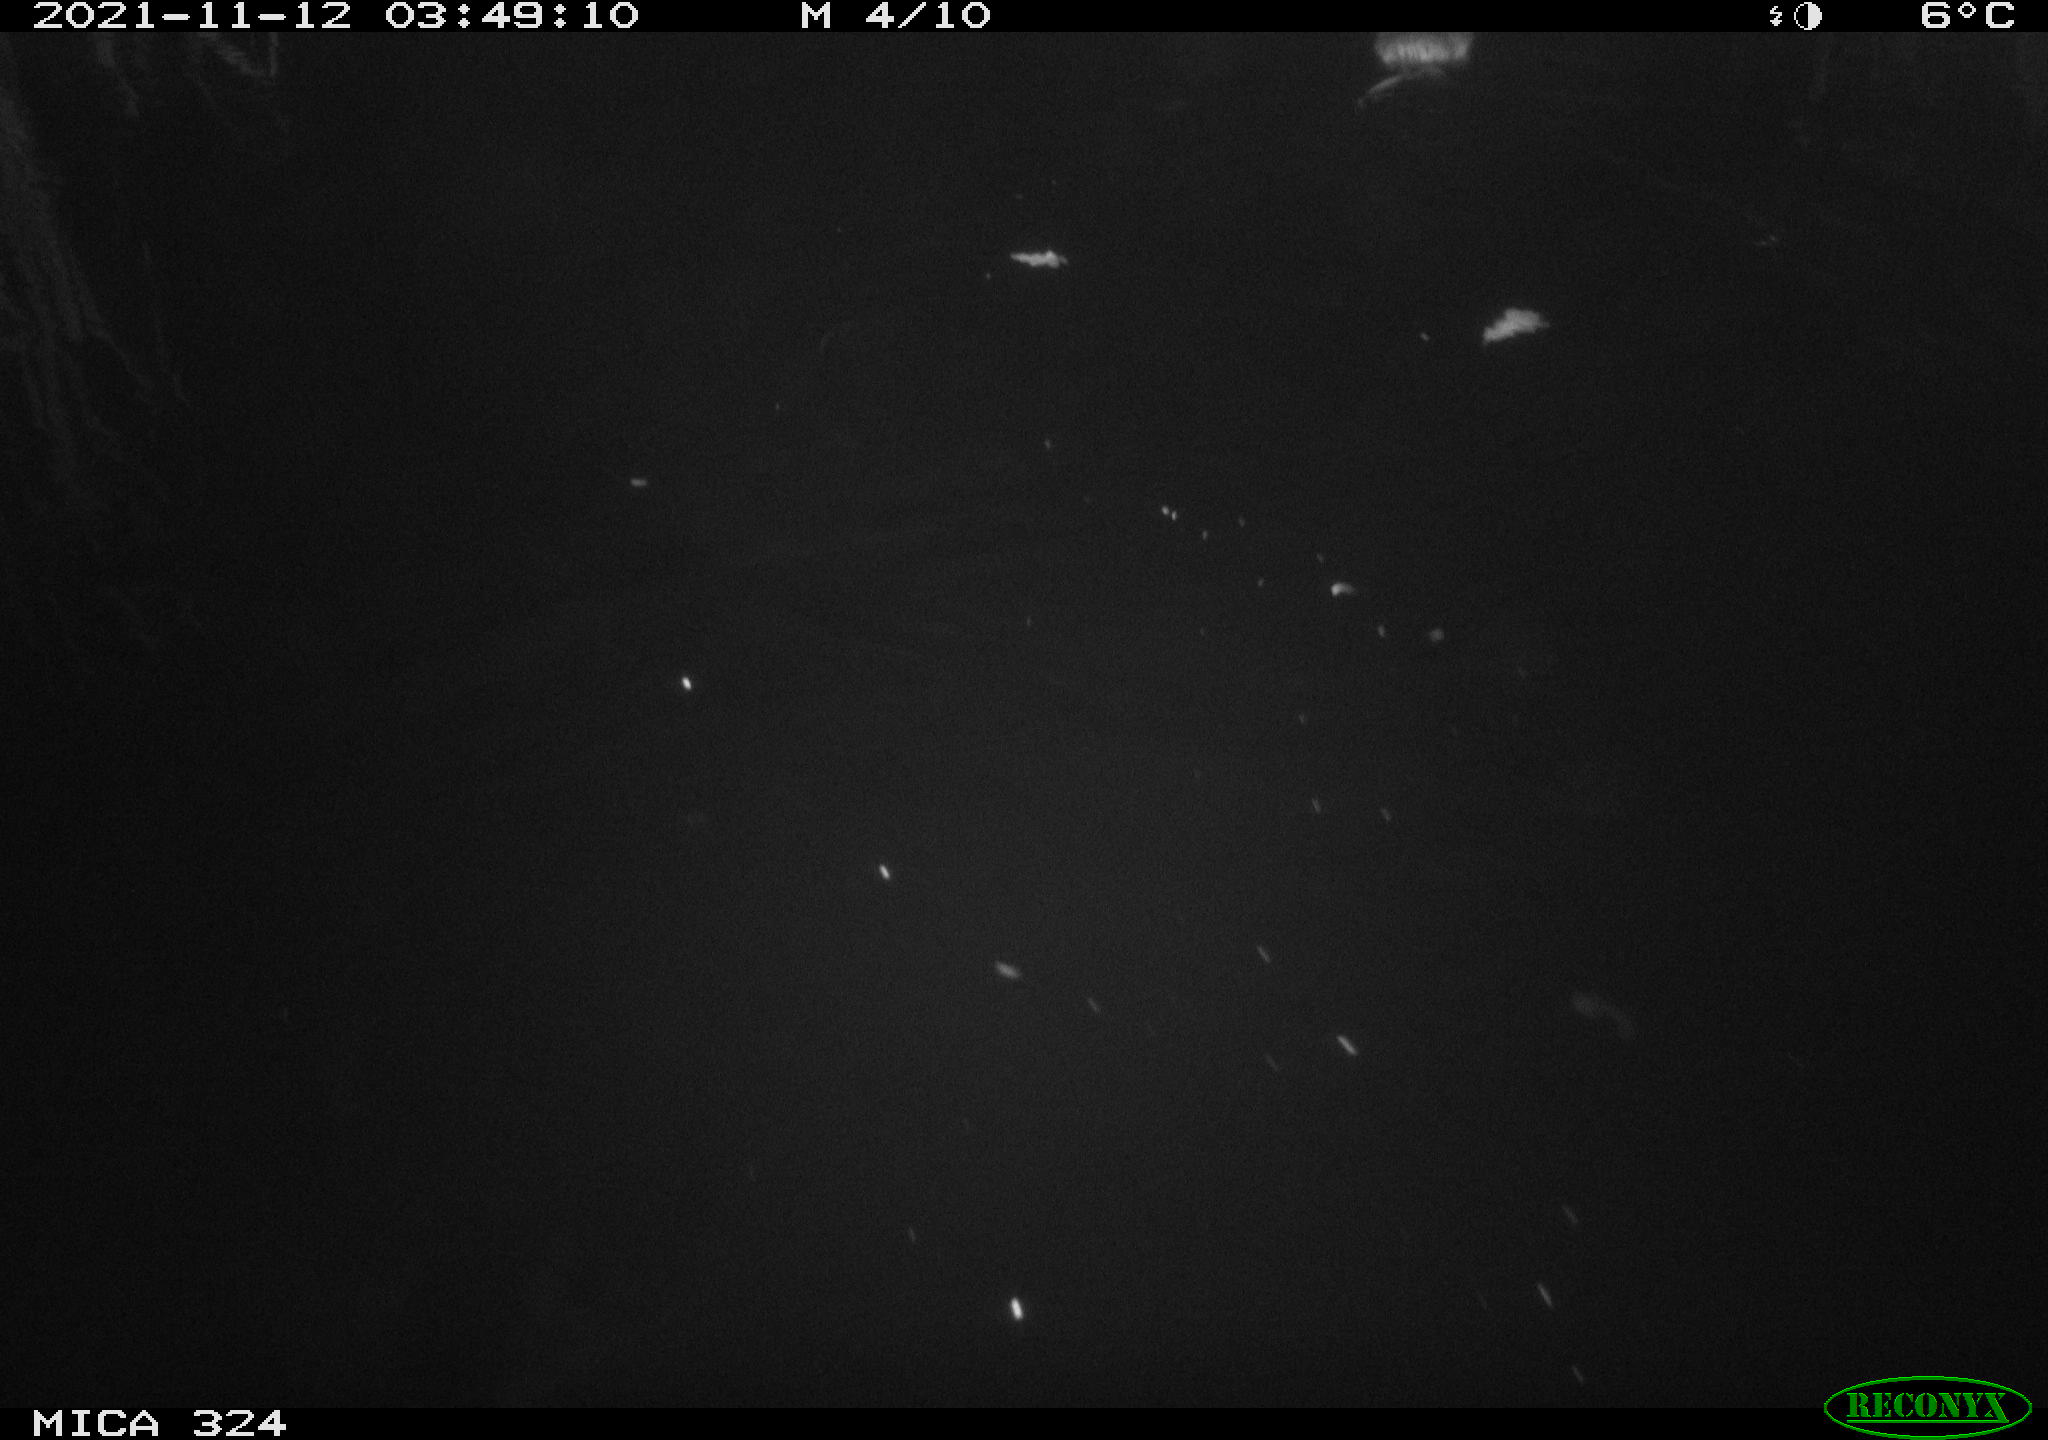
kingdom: Animalia
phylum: Chordata
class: Mammalia
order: Rodentia
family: Cricetidae
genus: Ondatra
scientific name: Ondatra zibethicus
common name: Muskrat
